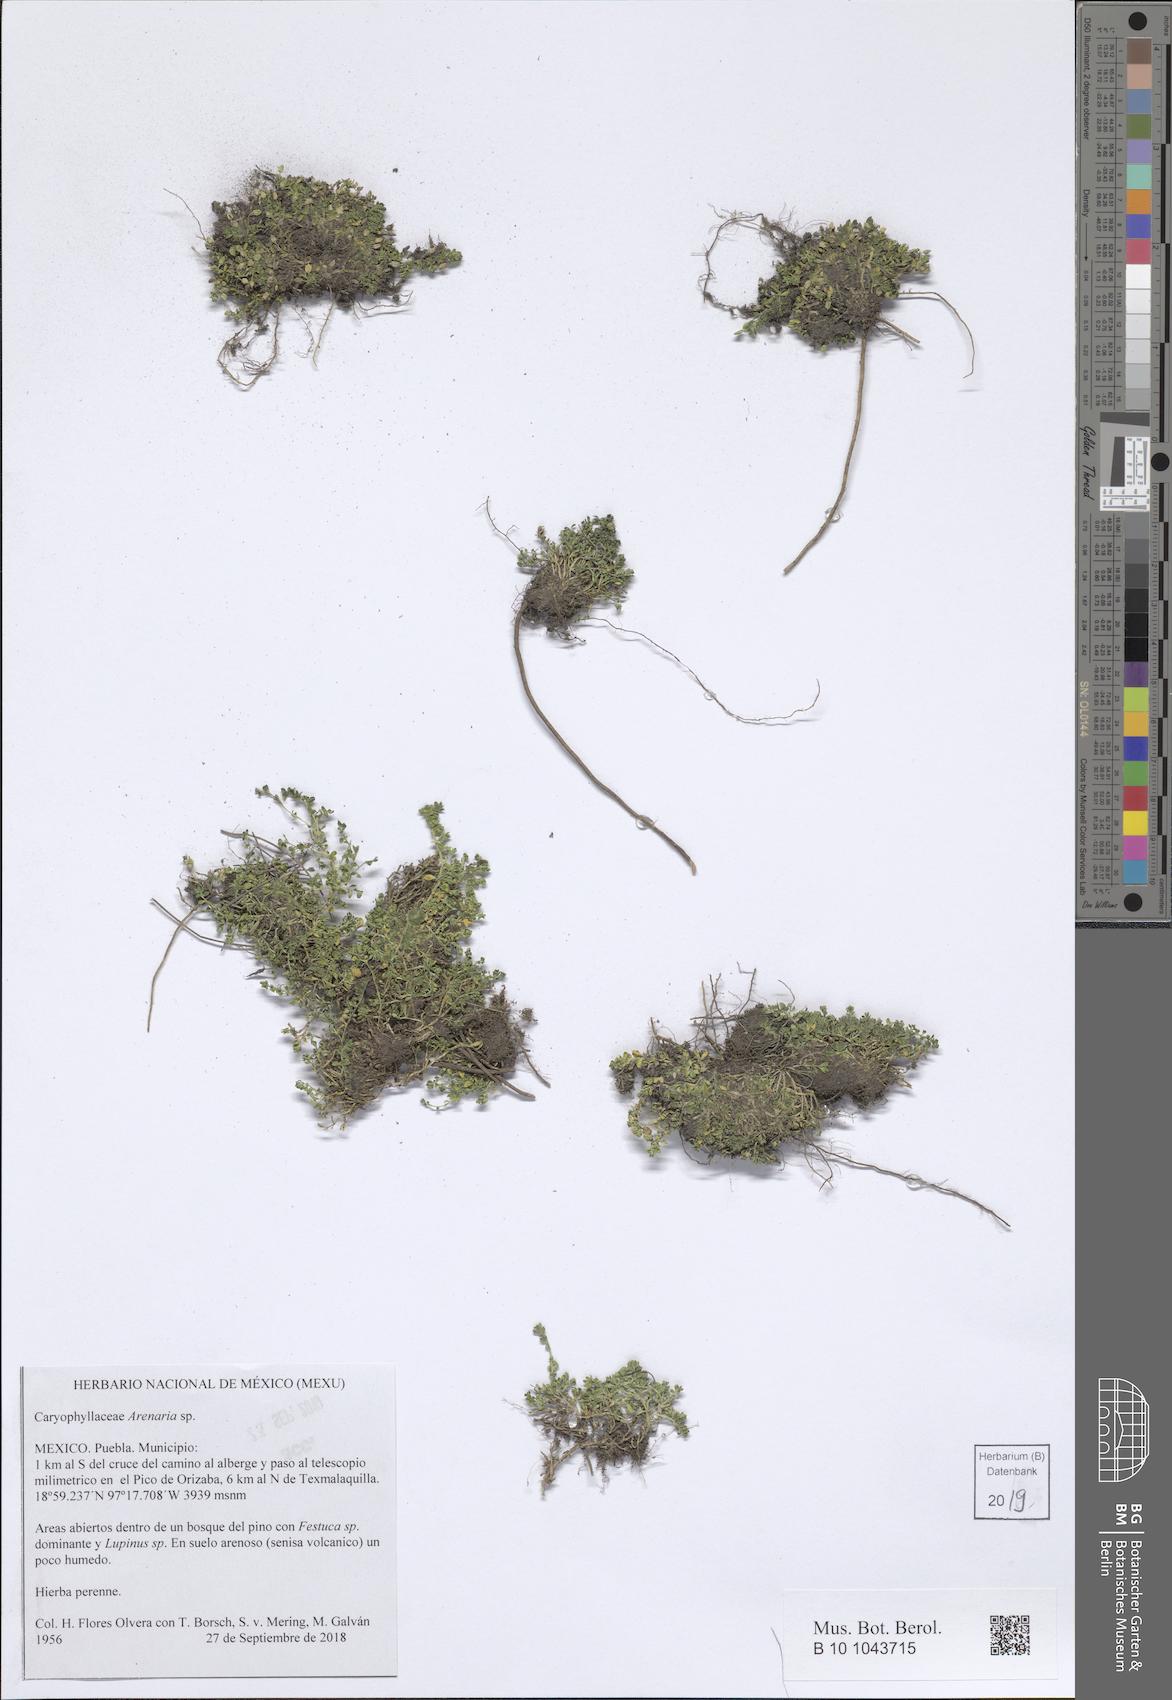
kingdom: Plantae
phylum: Tracheophyta
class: Magnoliopsida
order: Caryophyllales
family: Caryophyllaceae
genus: Arenaria
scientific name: Arenaria
